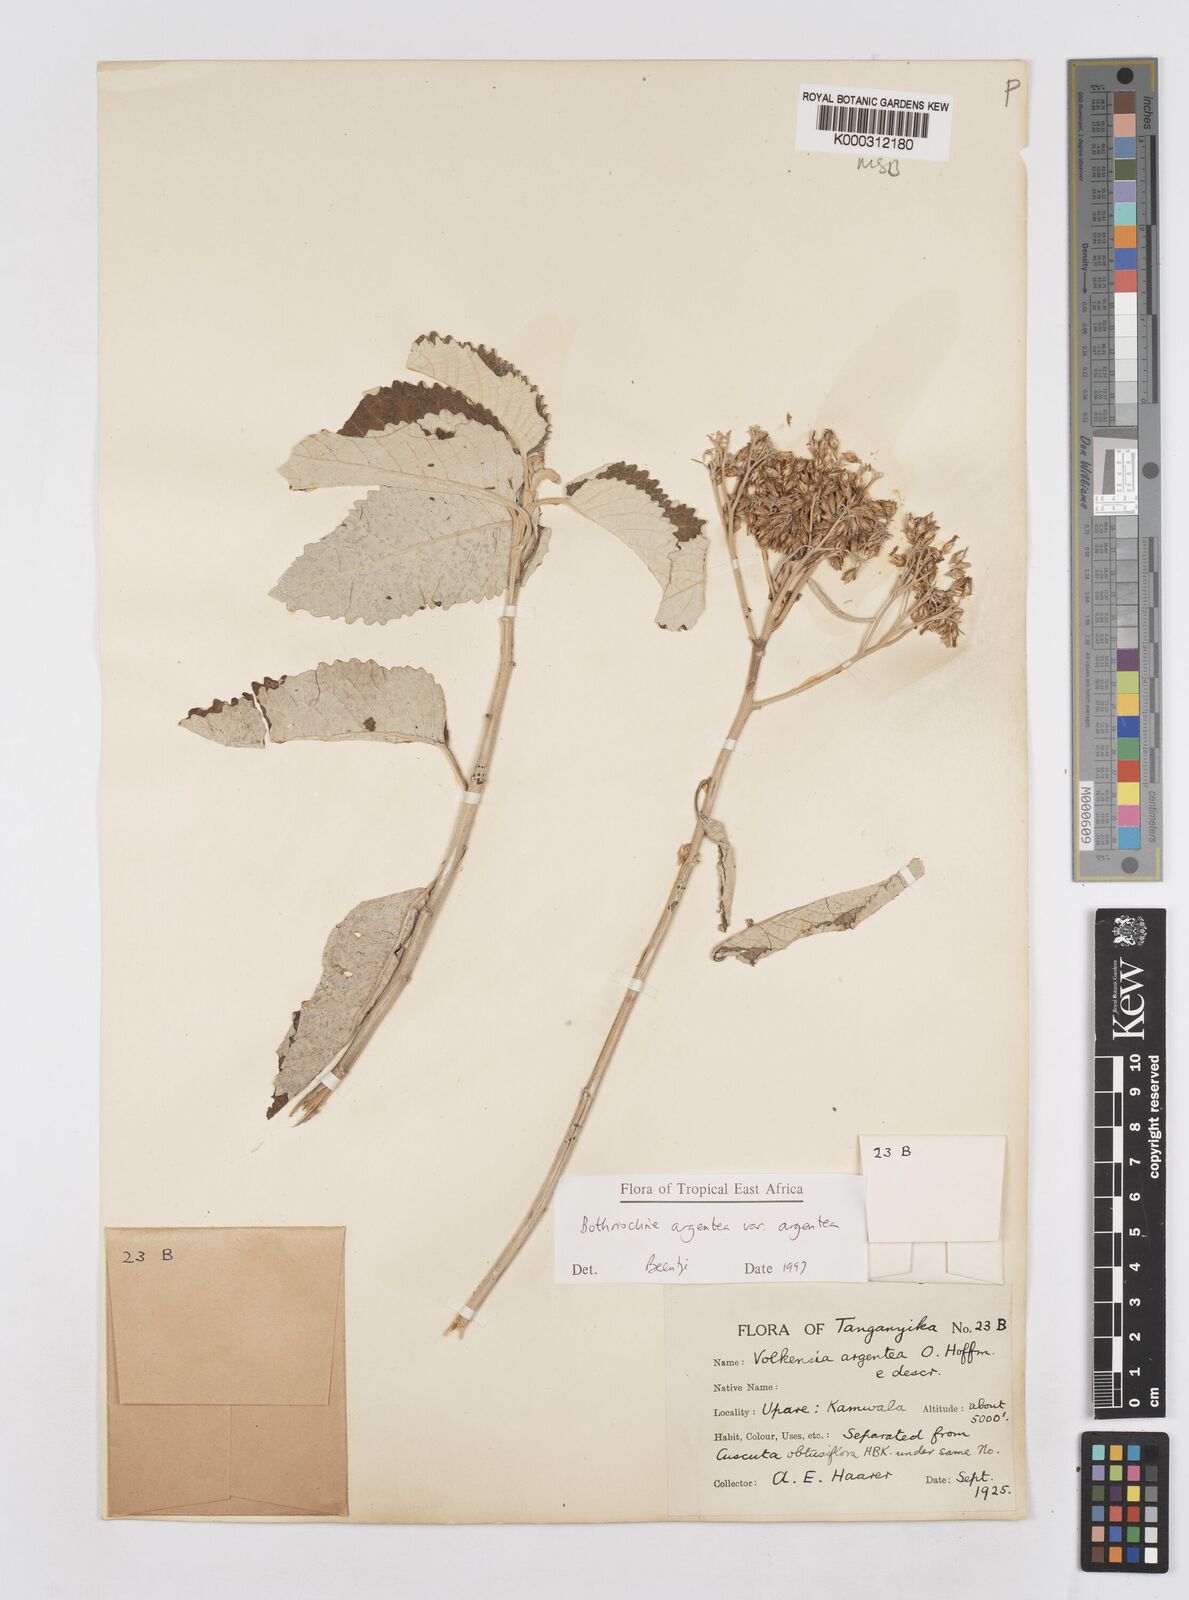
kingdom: Plantae
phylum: Tracheophyta
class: Magnoliopsida
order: Asterales
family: Asteraceae
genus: Bothriocline
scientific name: Bothriocline argentea
